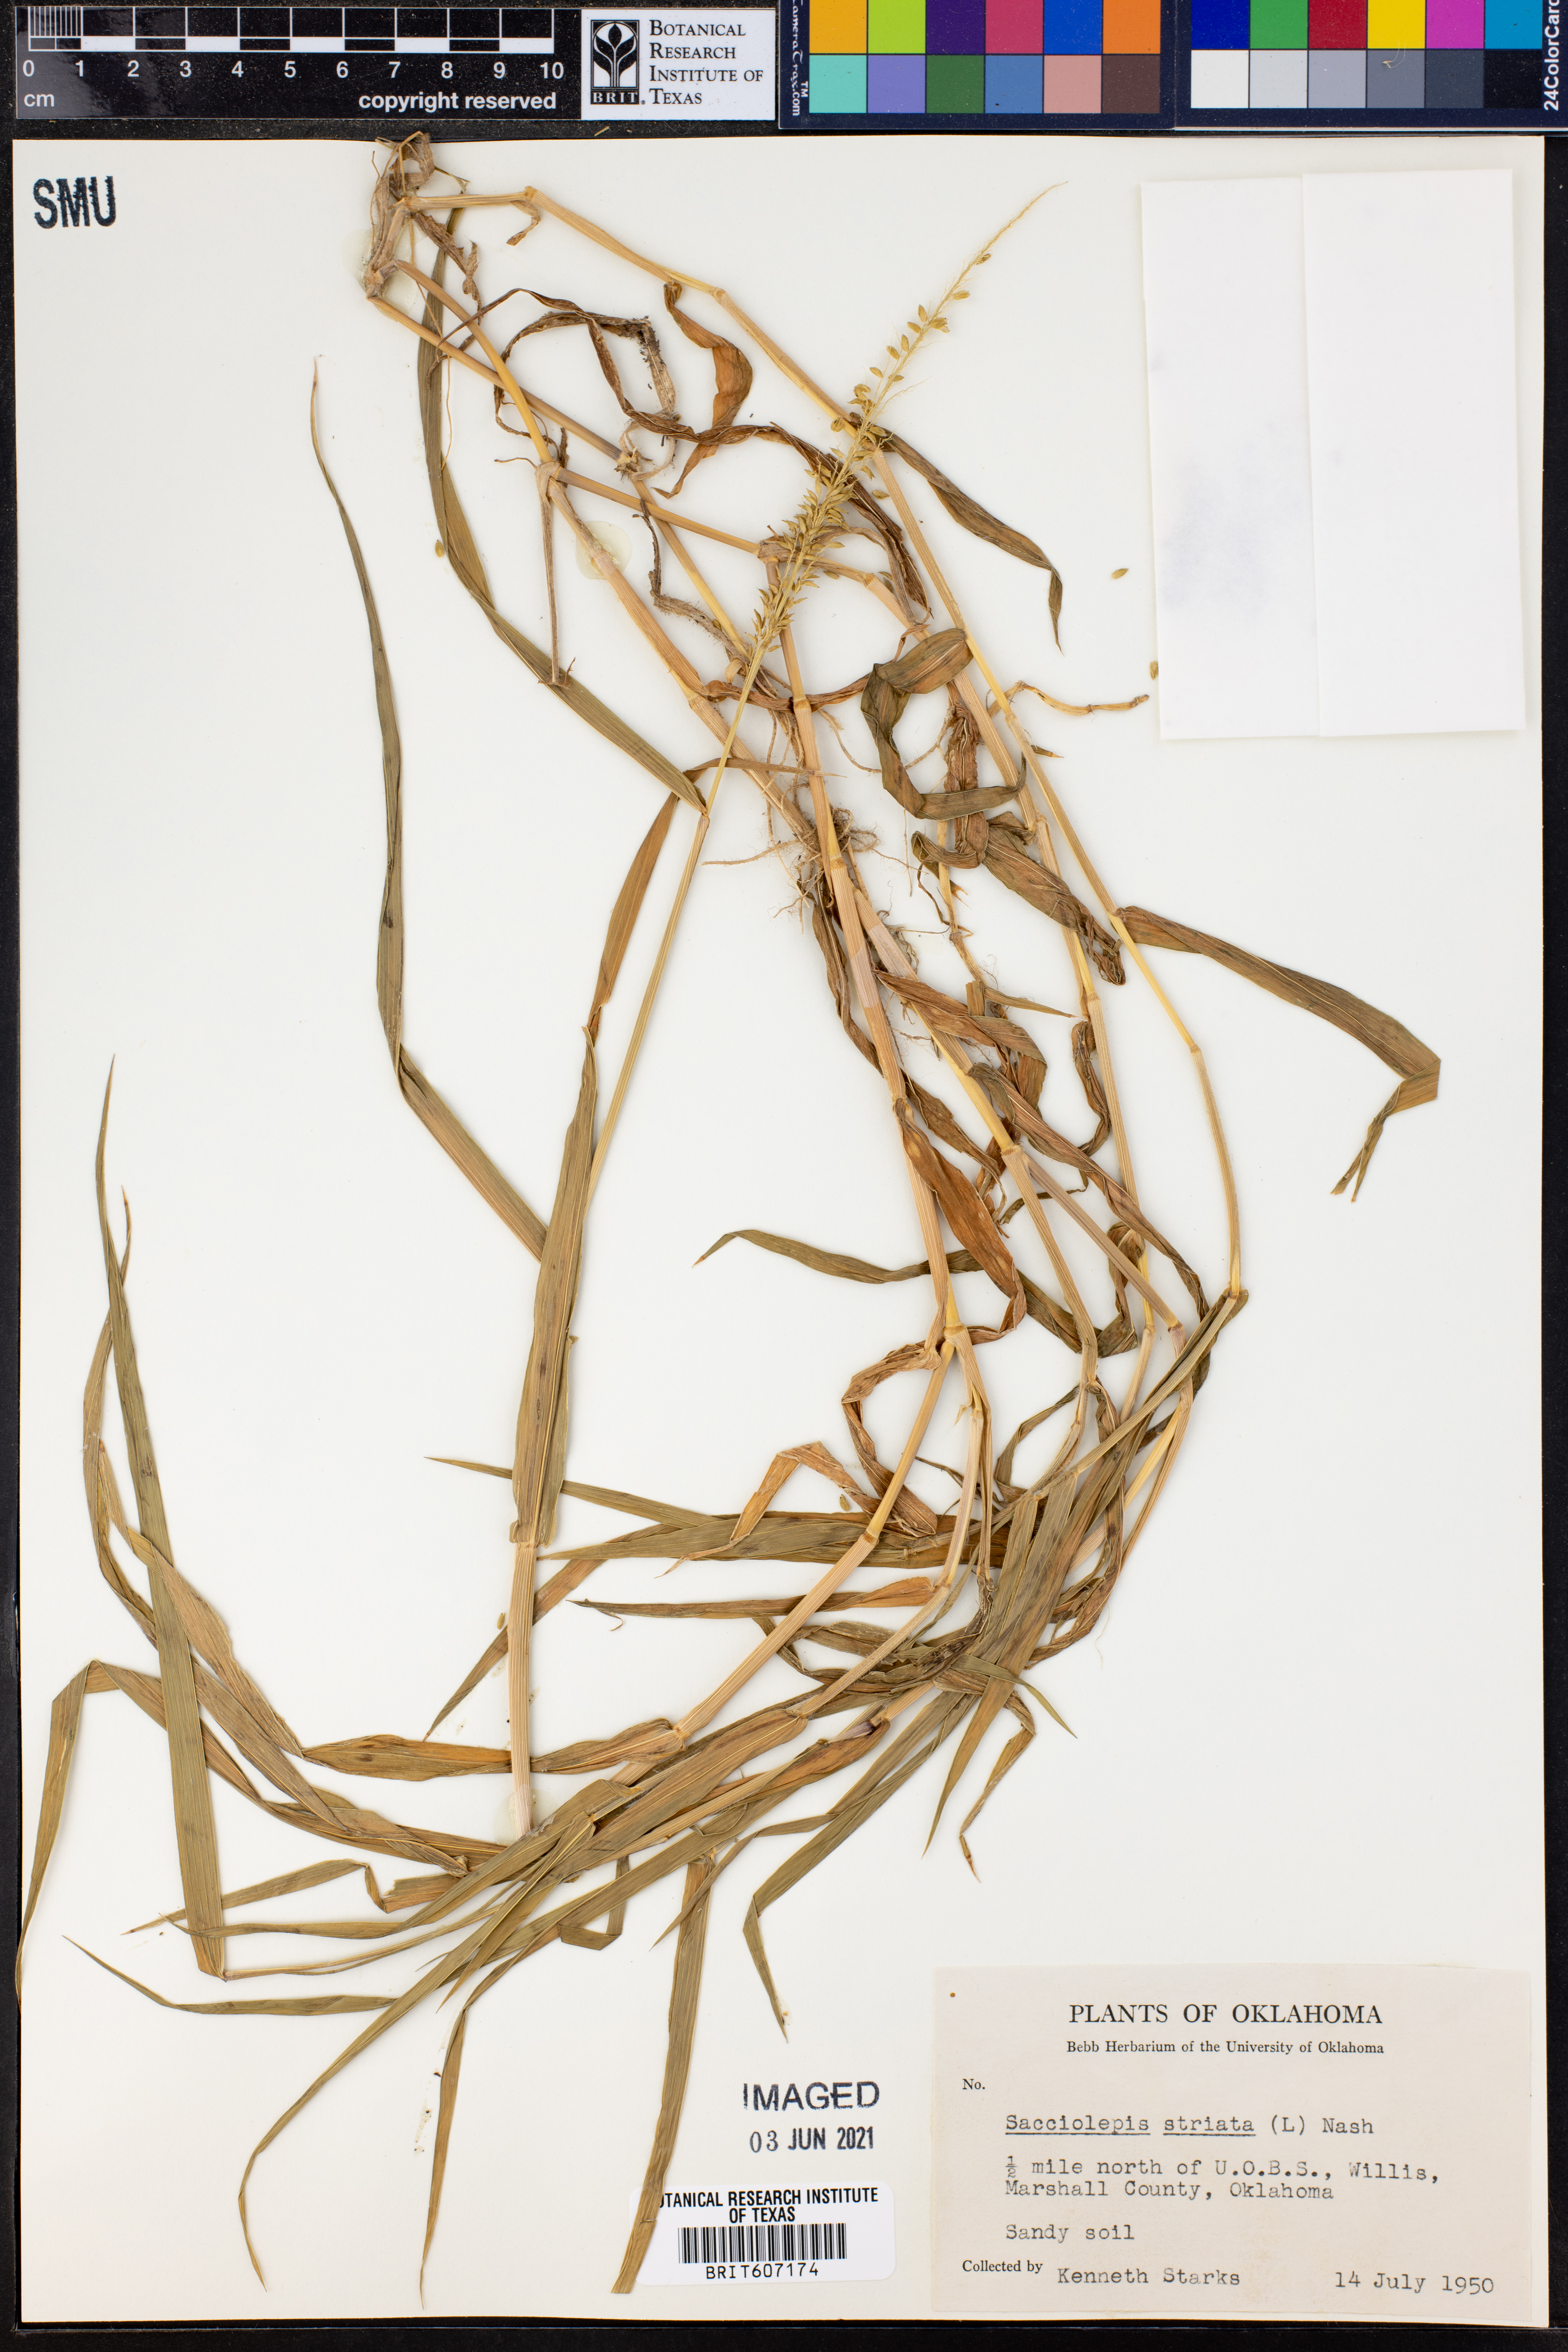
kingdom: Plantae
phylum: Tracheophyta
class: Liliopsida
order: Poales
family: Poaceae
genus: Sacciolepis
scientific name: Sacciolepis striata
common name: American cupscale
